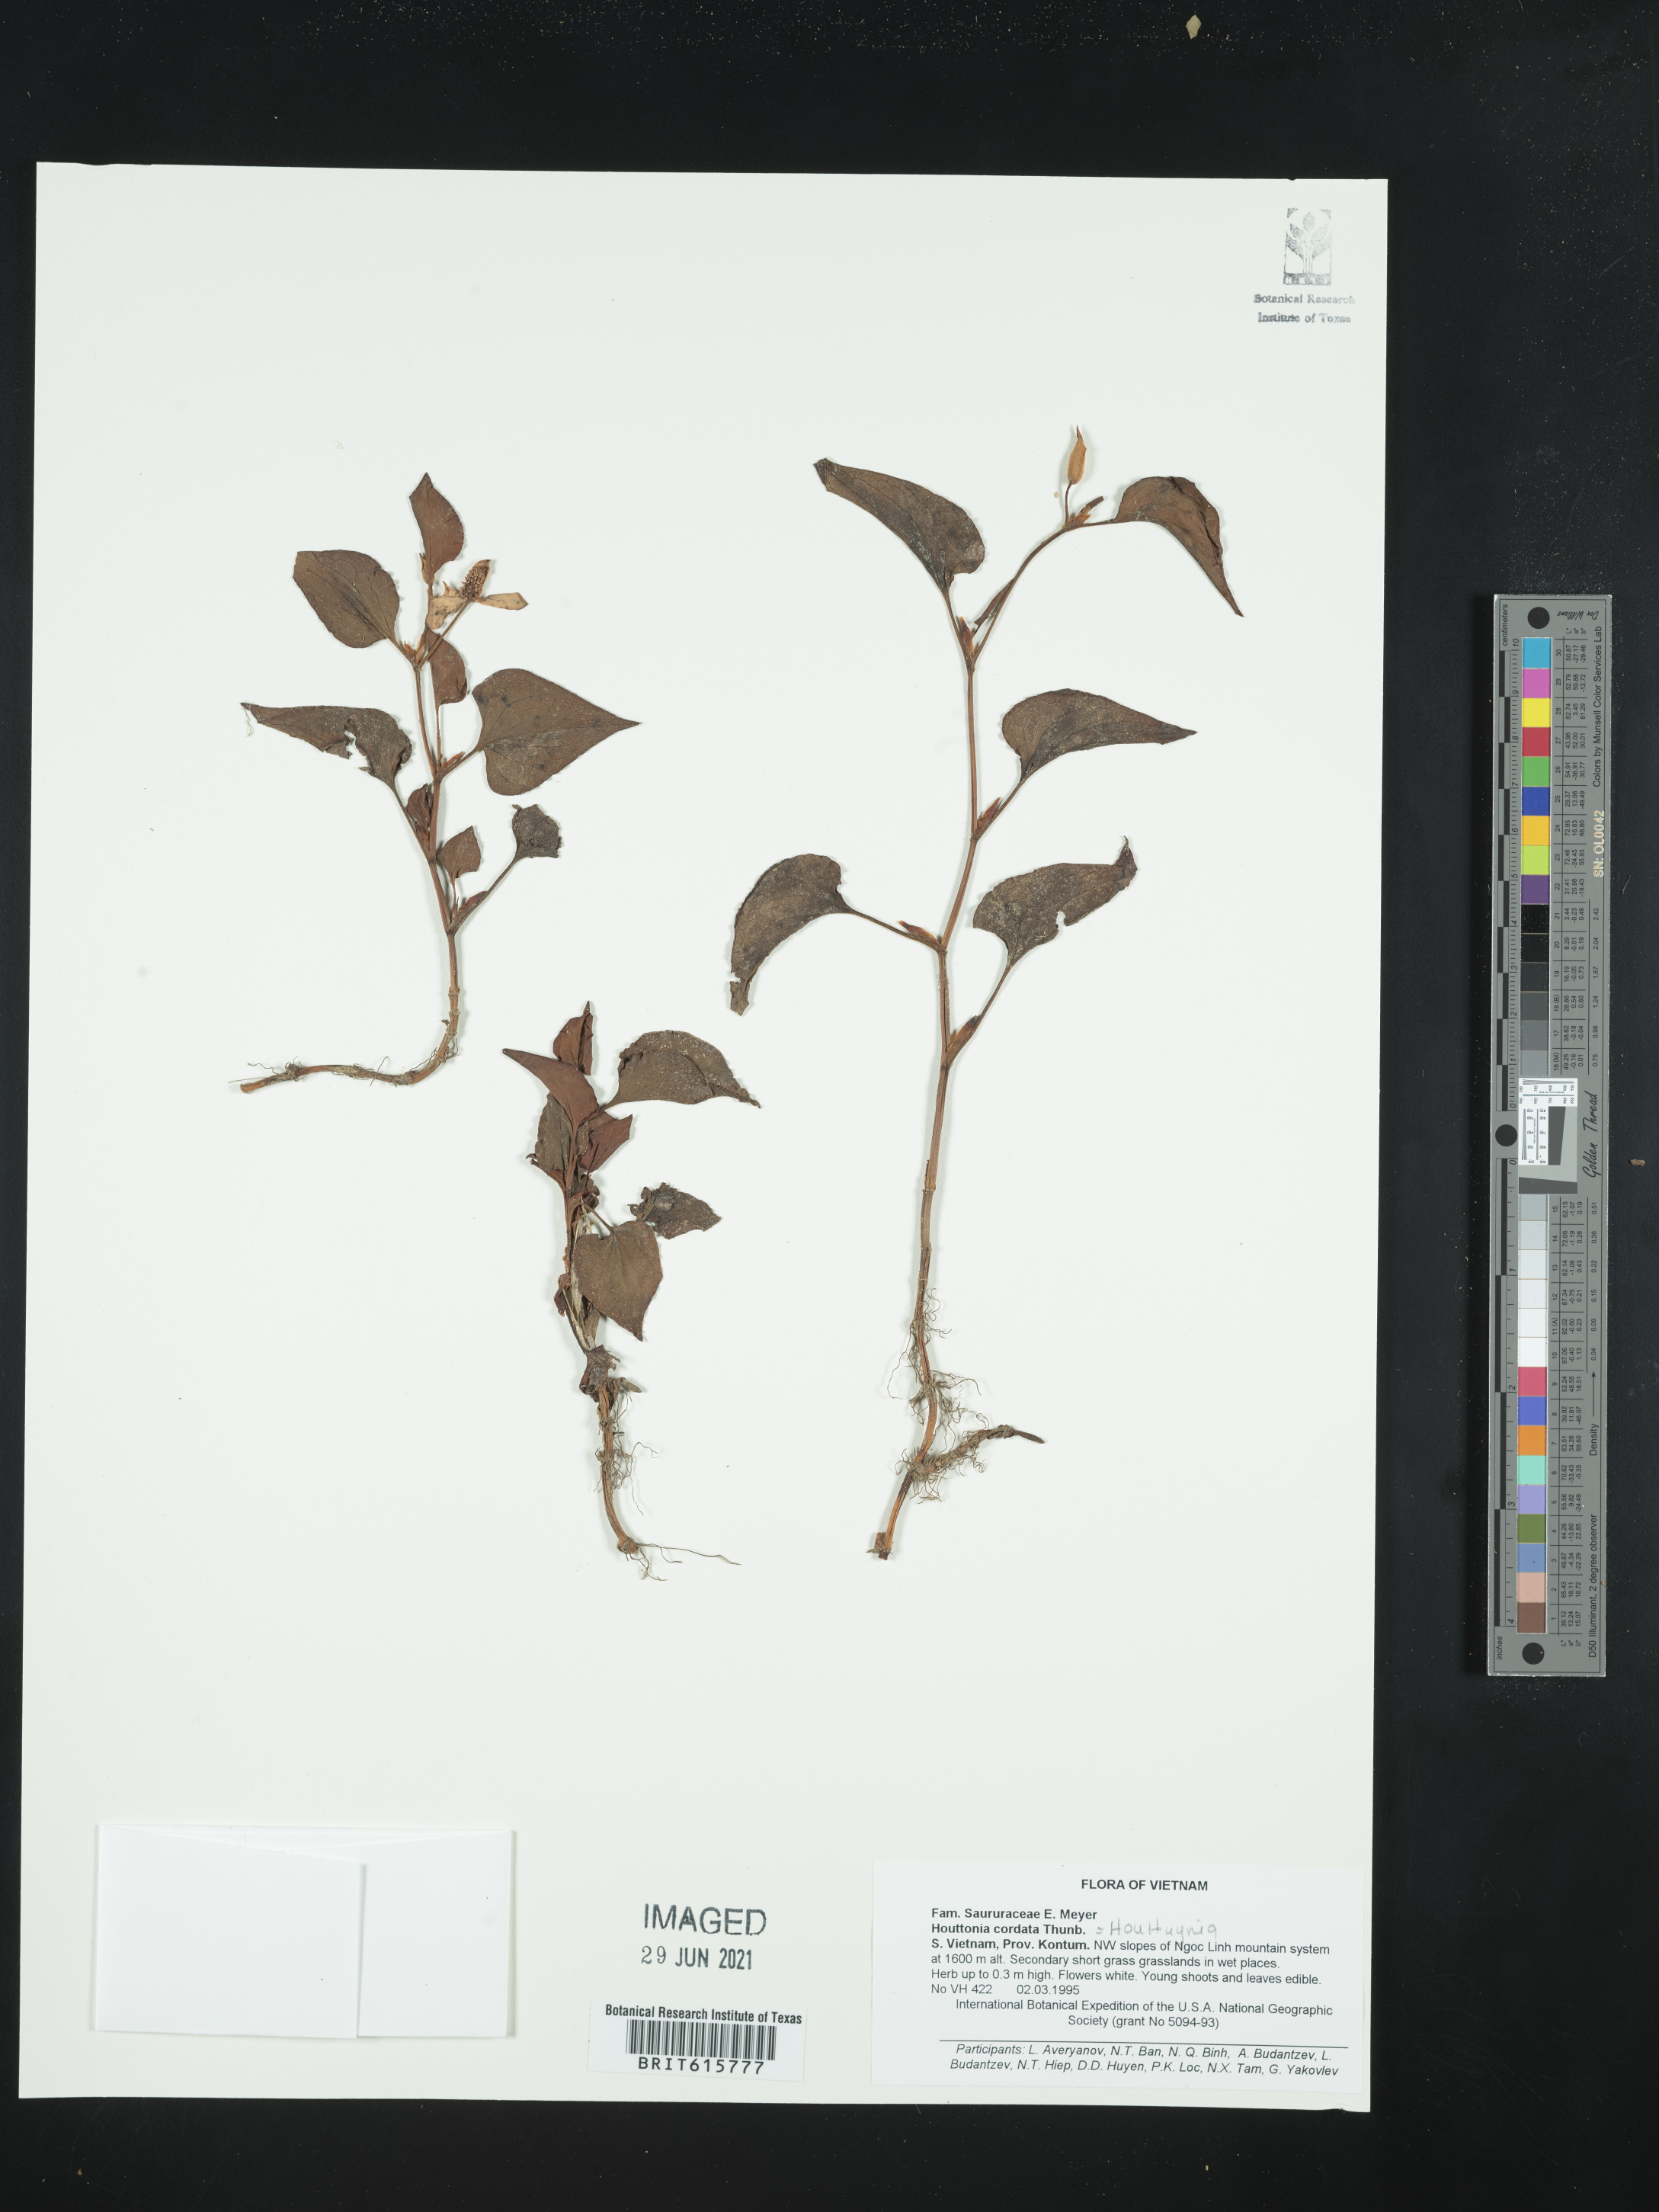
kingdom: Plantae
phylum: Tracheophyta
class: Magnoliopsida
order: Piperales
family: Saururaceae
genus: Houttuynia
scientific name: Houttuynia cordata
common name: Chameleon
